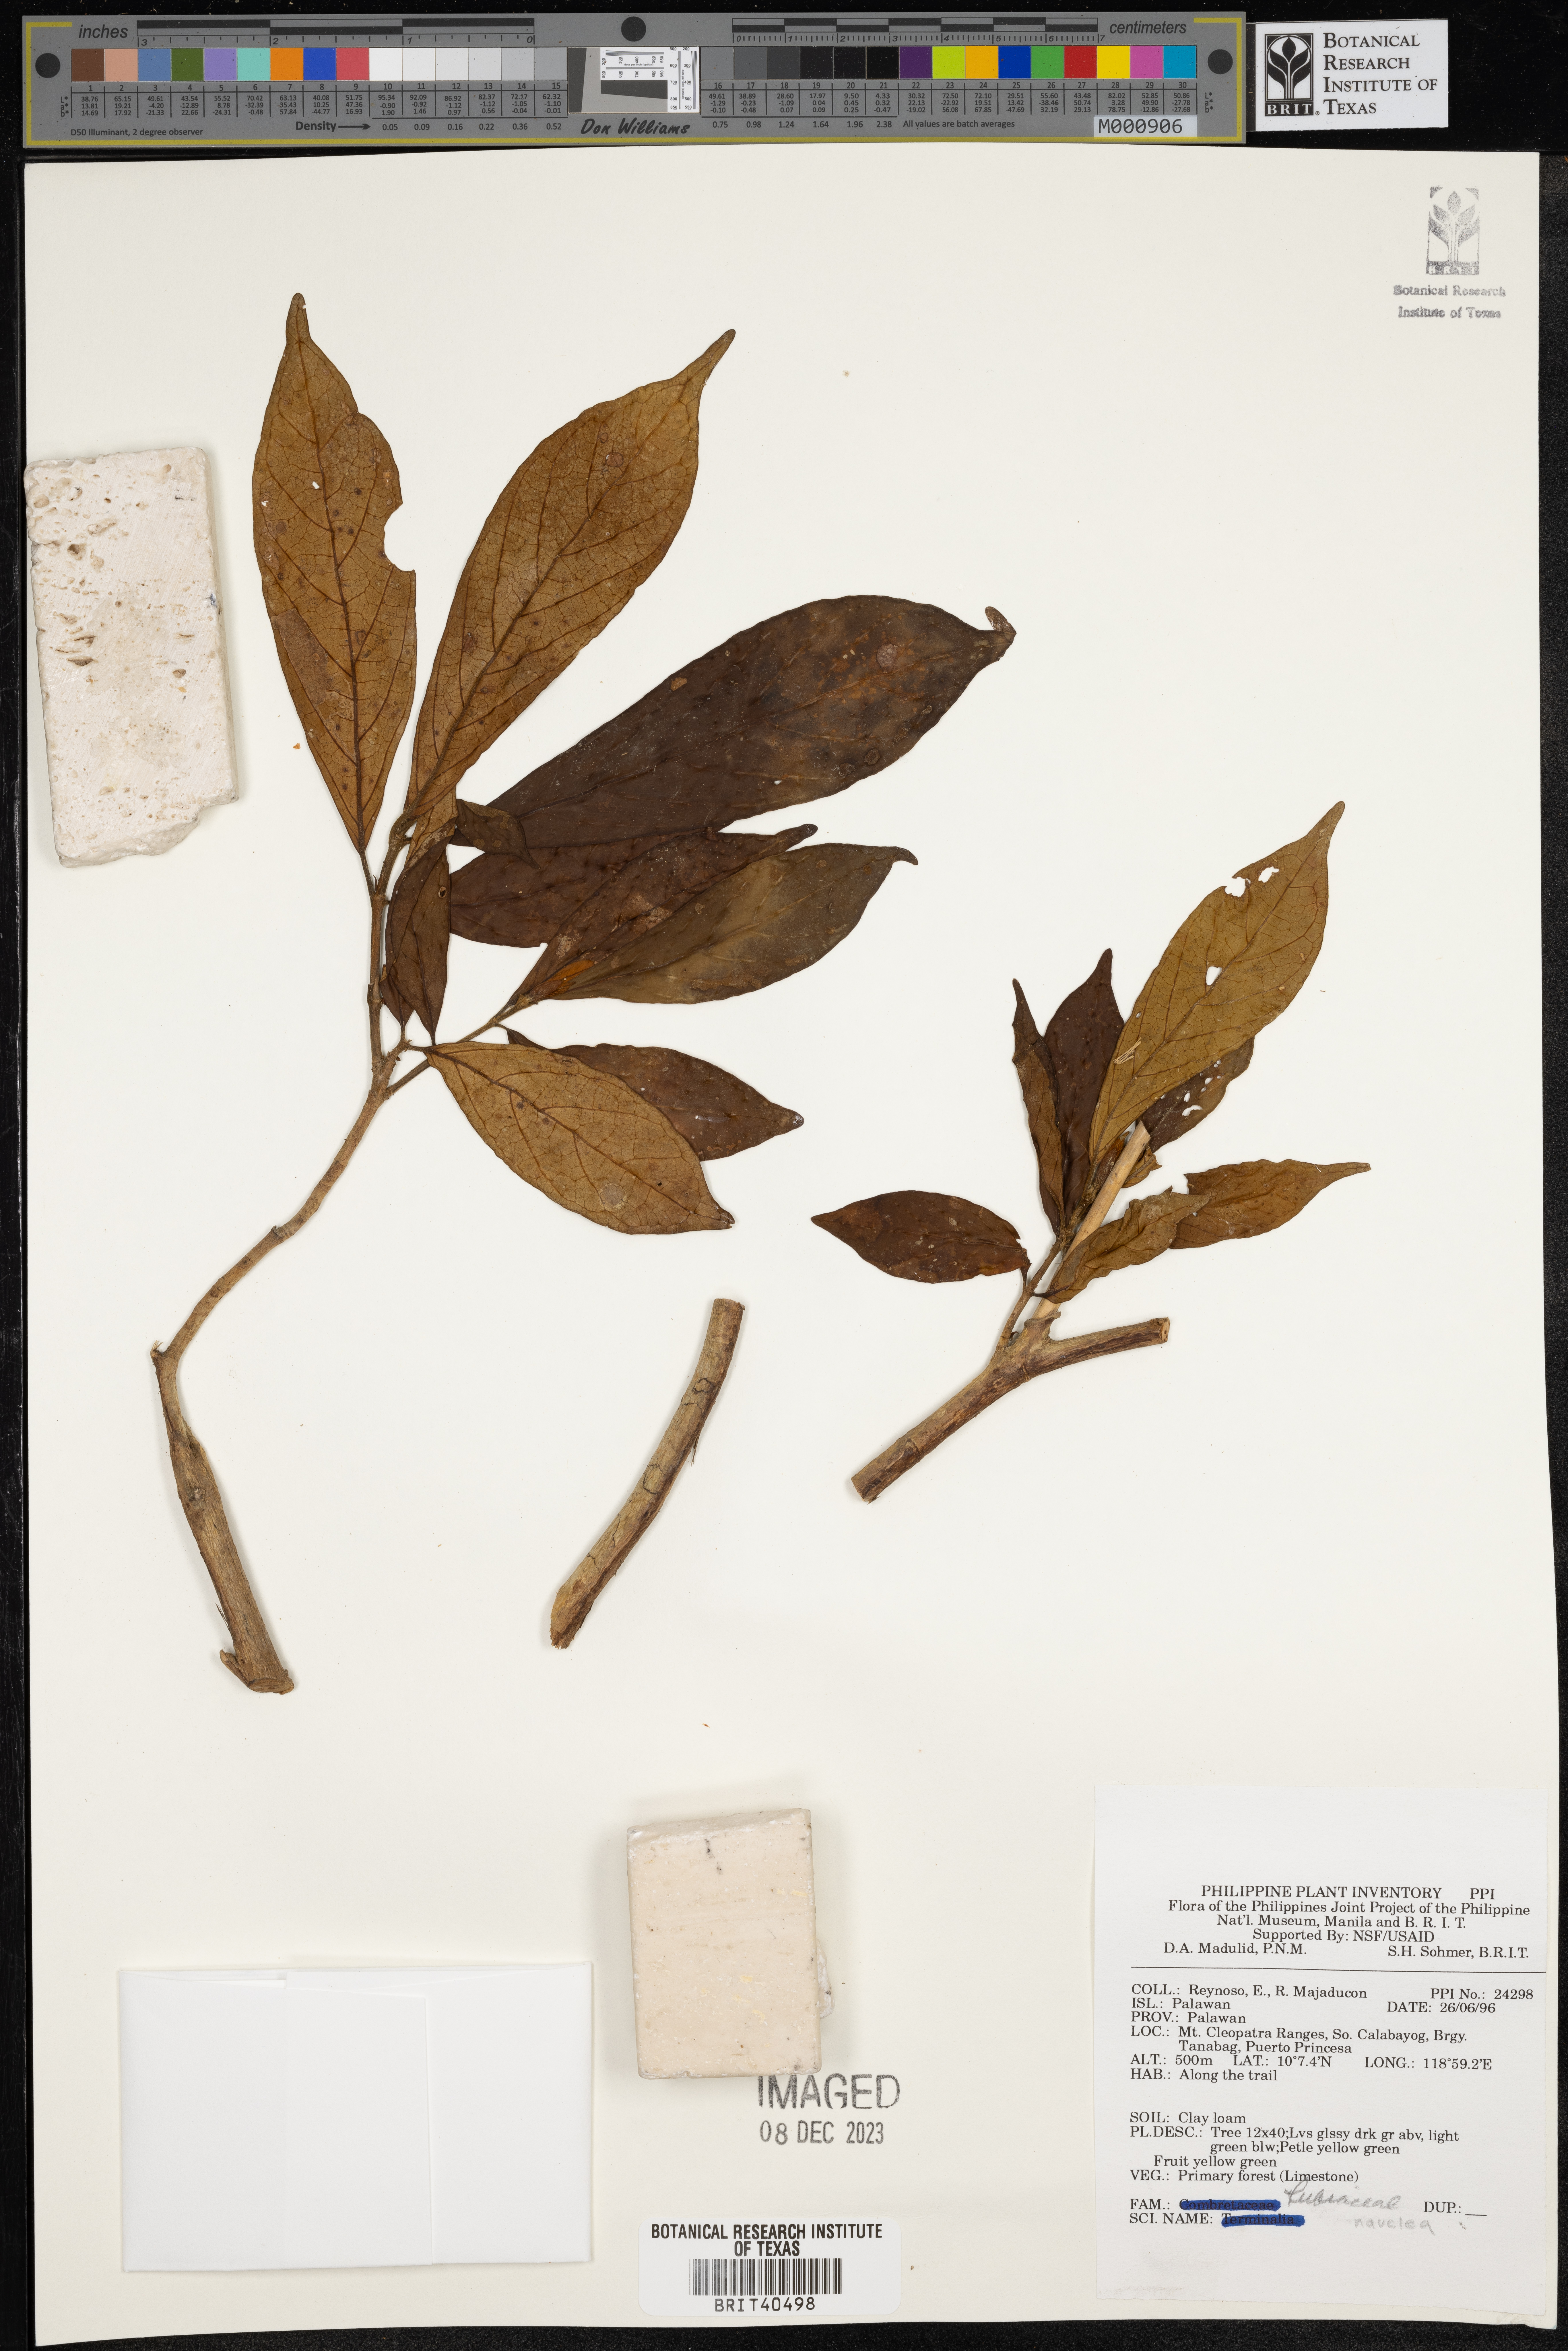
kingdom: Plantae
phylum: Tracheophyta
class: Magnoliopsida
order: Gentianales
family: Rubiaceae
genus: Nauclea
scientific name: Nauclea
